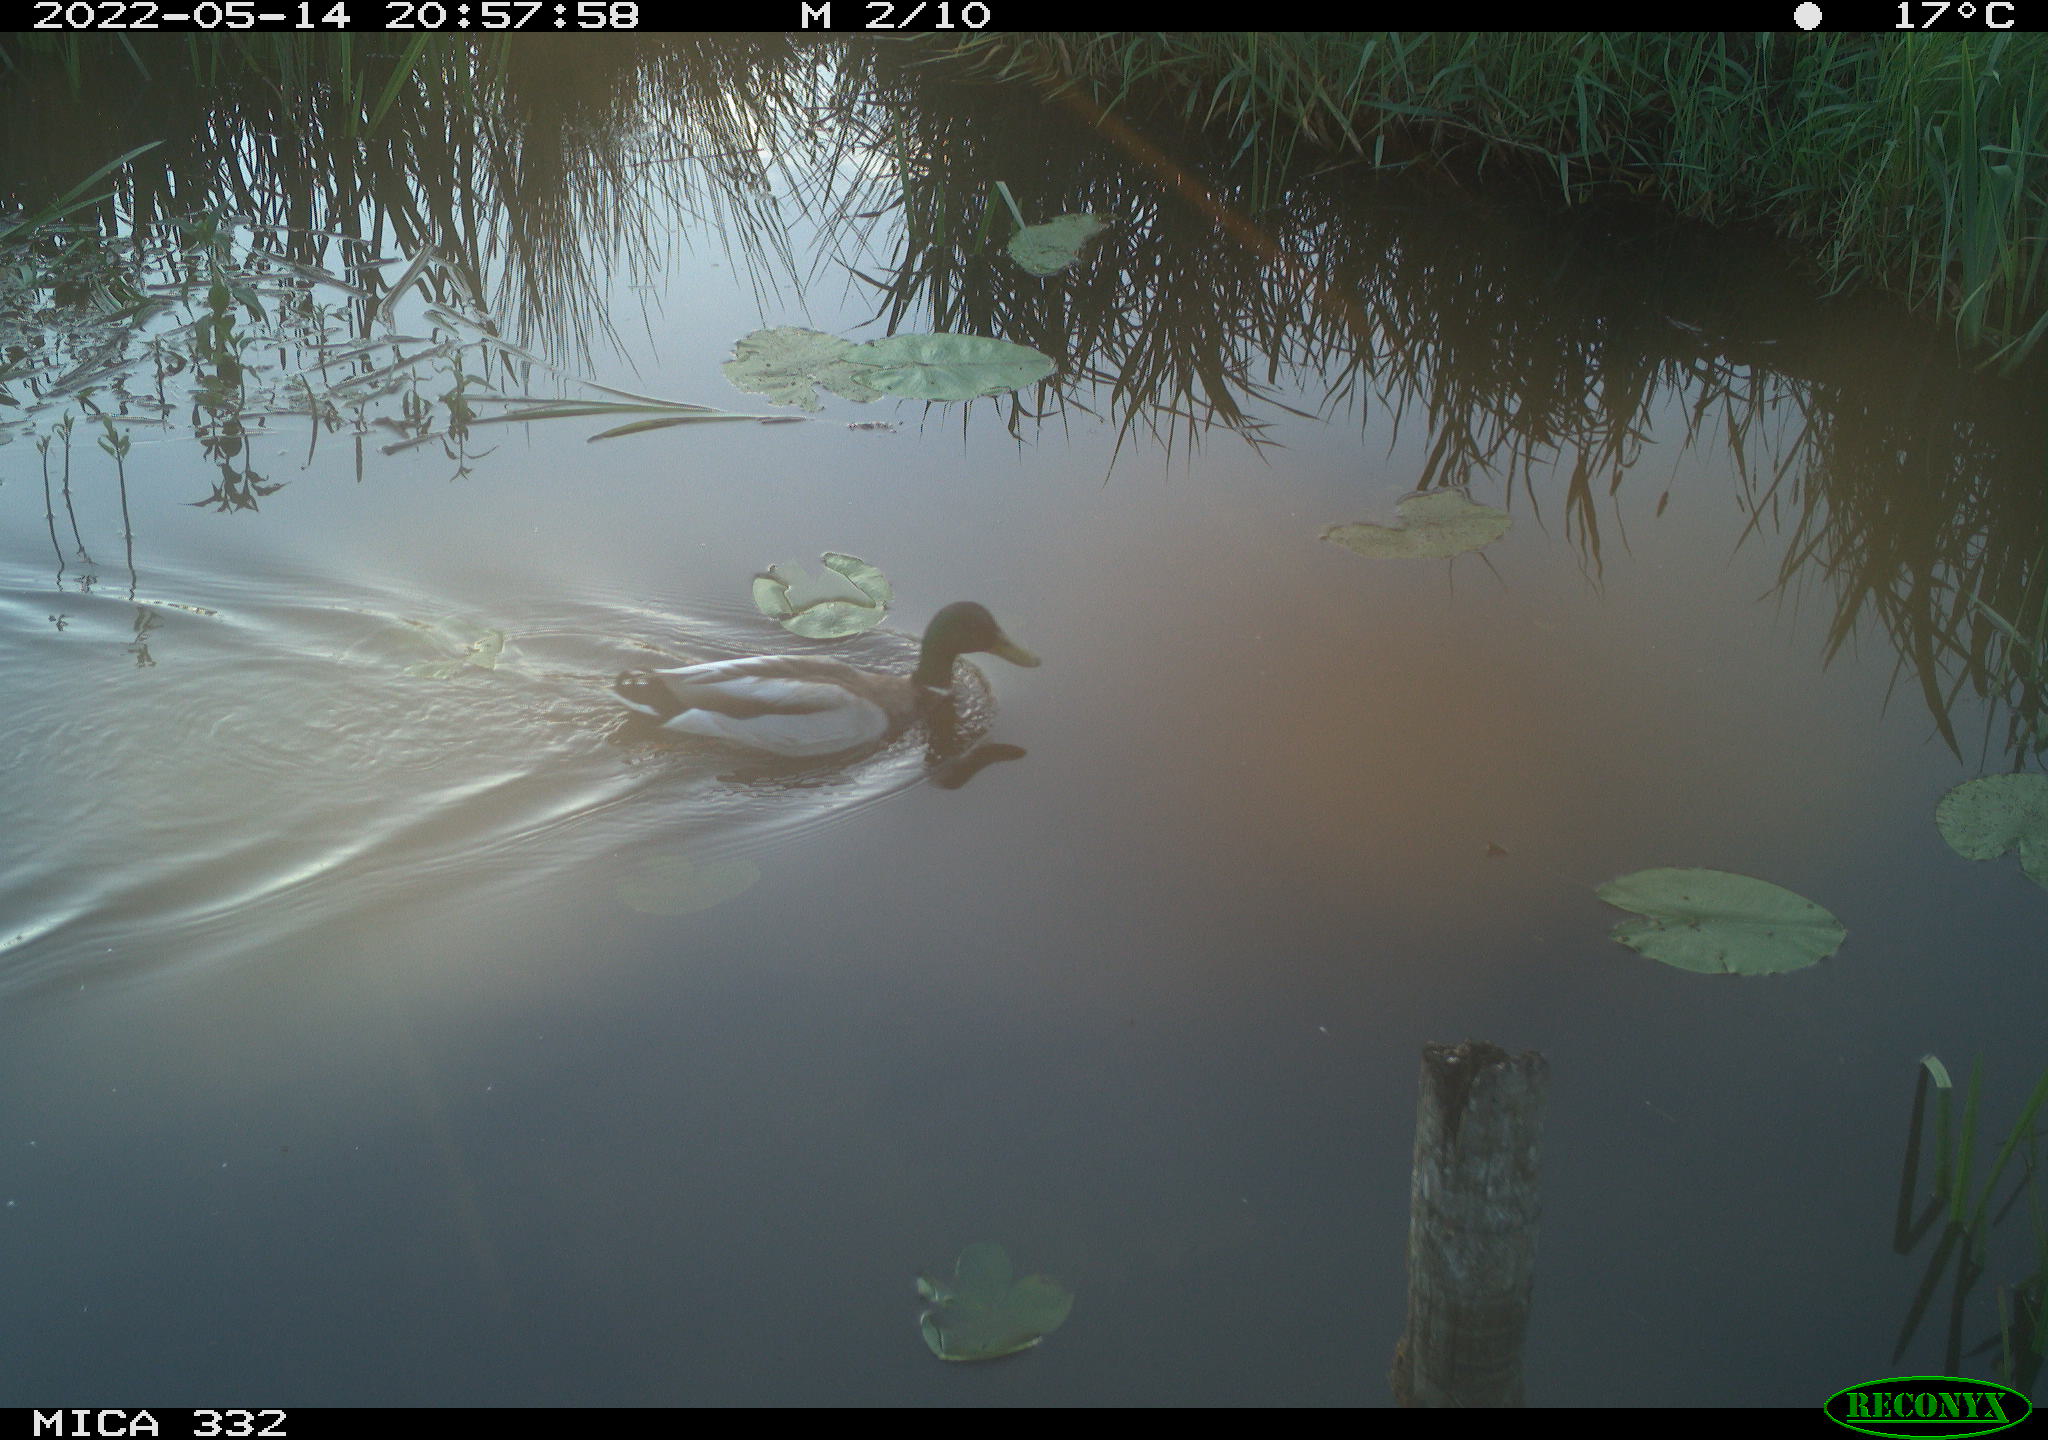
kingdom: Animalia
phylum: Chordata
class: Aves
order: Anseriformes
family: Anatidae
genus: Anas
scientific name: Anas platyrhynchos
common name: Mallard
